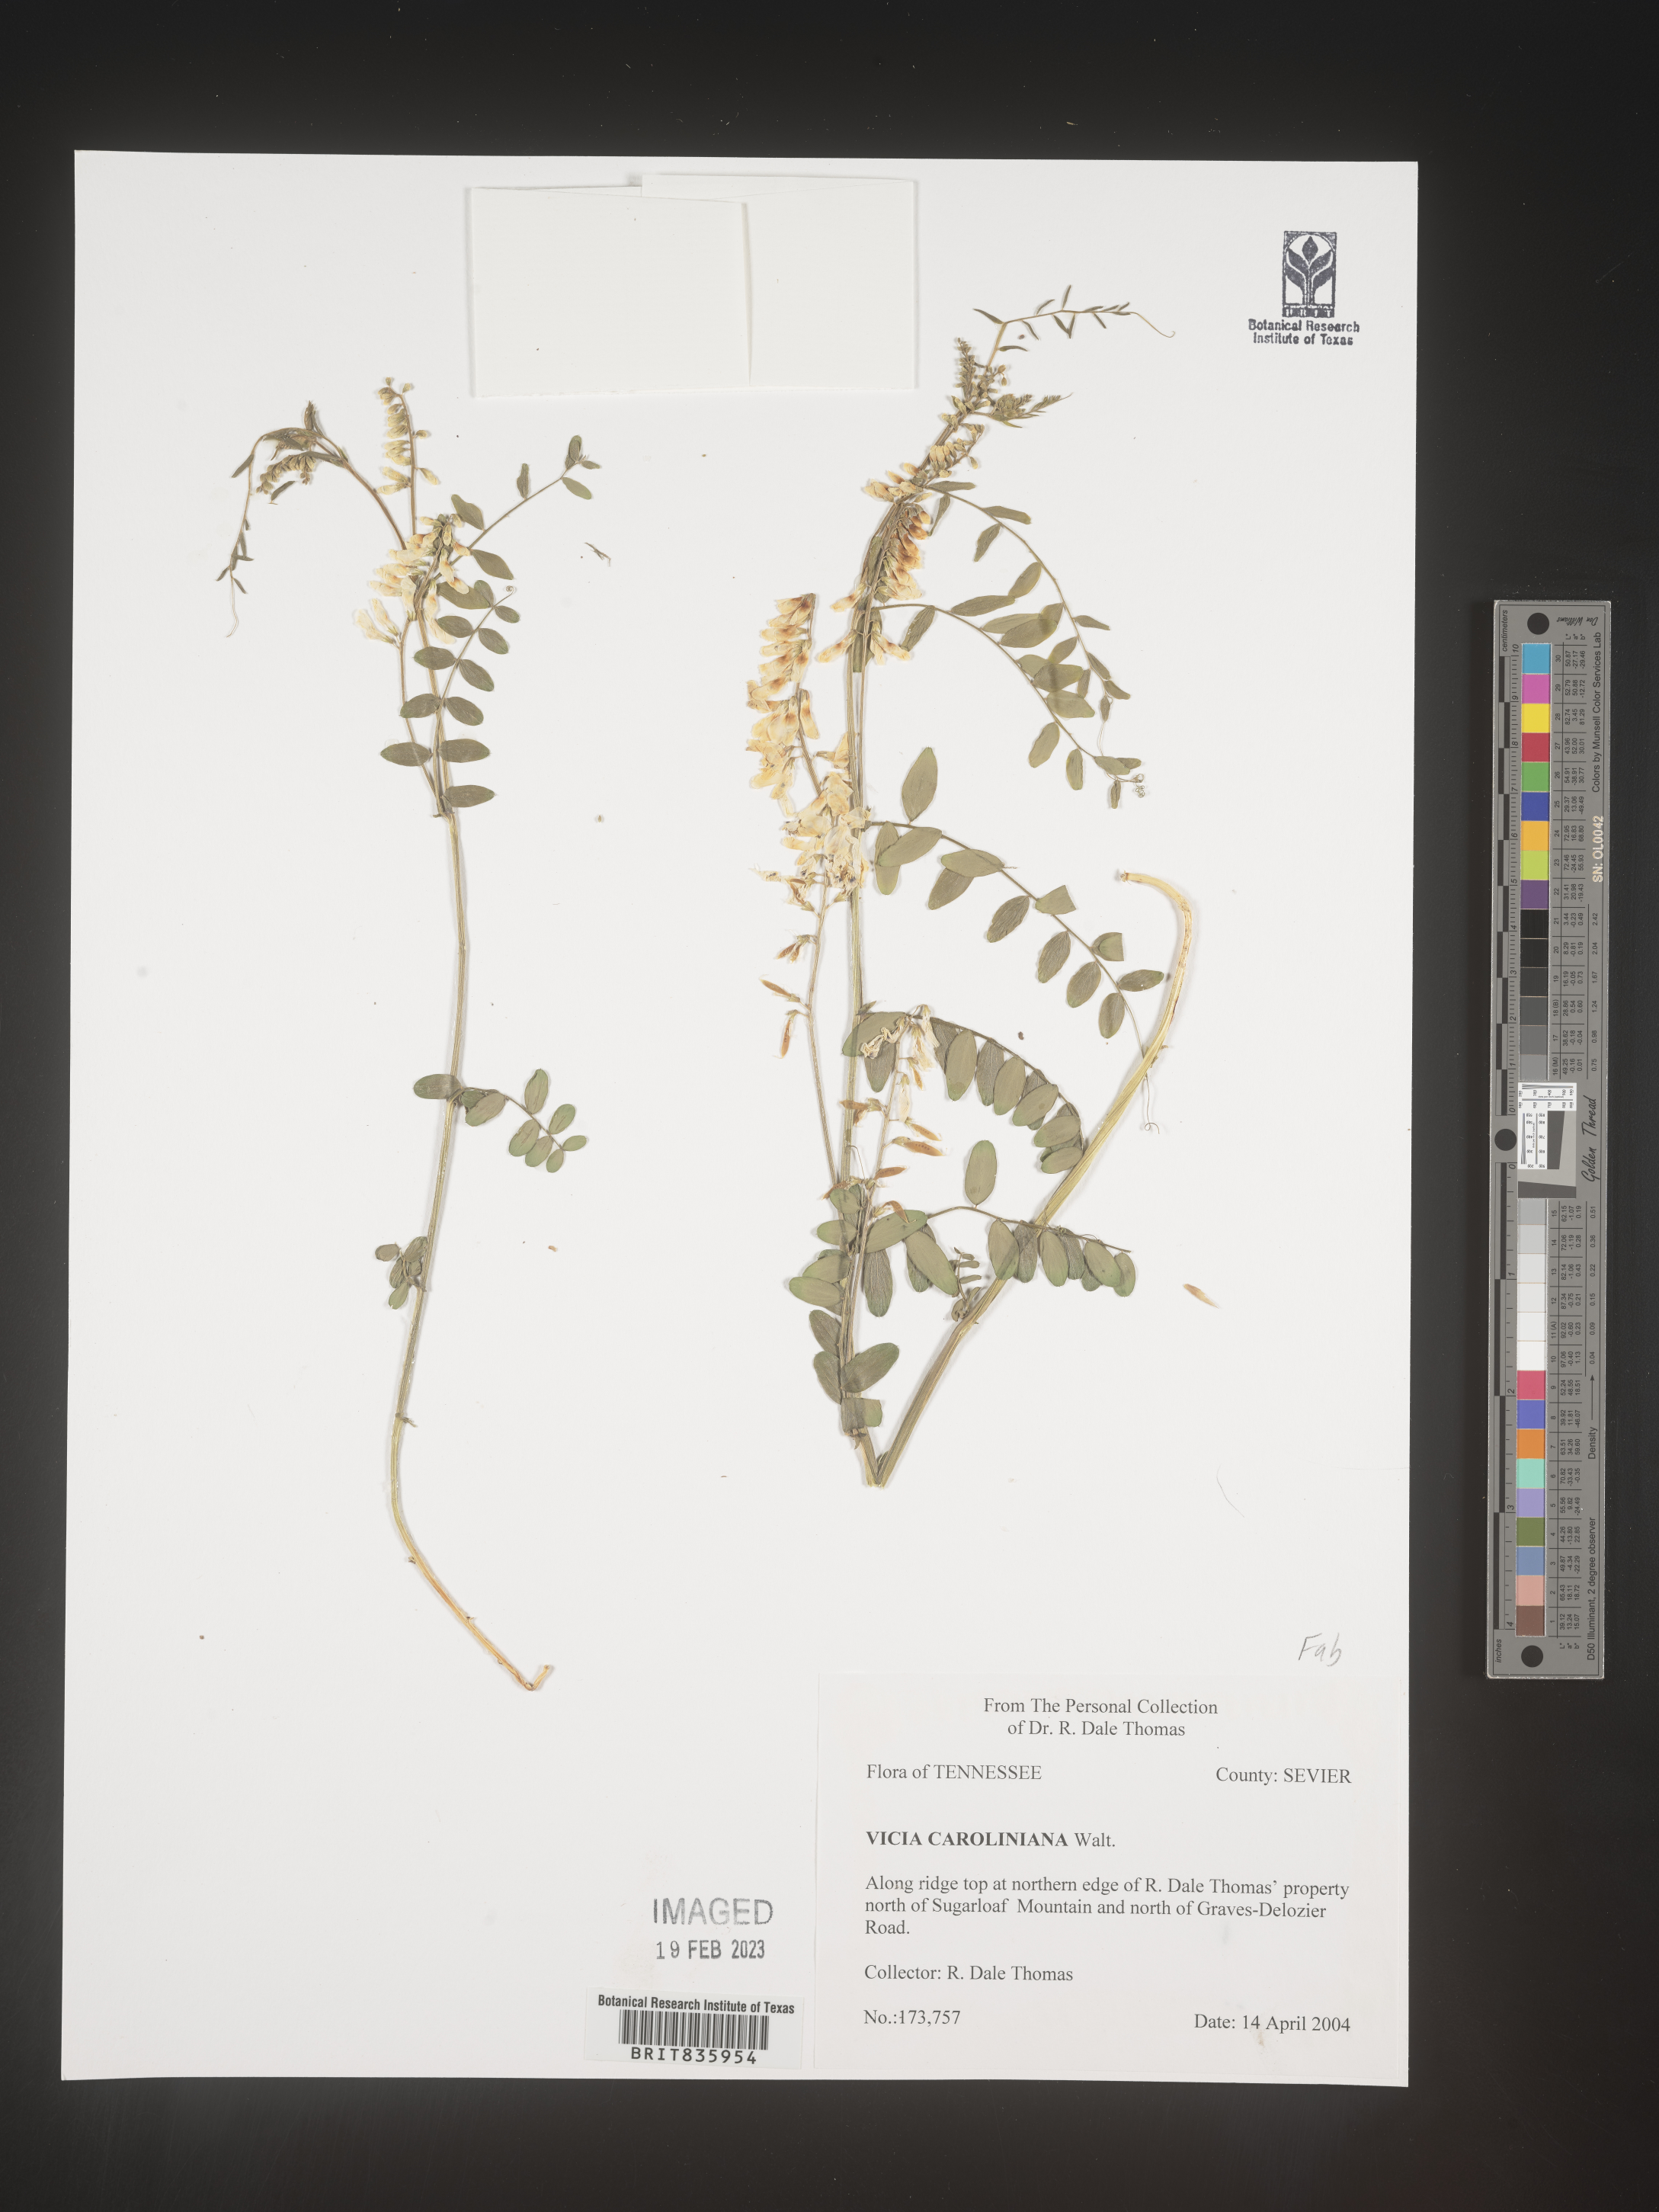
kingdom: Plantae
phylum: Tracheophyta
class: Magnoliopsida
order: Fabales
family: Fabaceae
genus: Vicia
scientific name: Vicia caroliniana
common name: Carolina vetch
